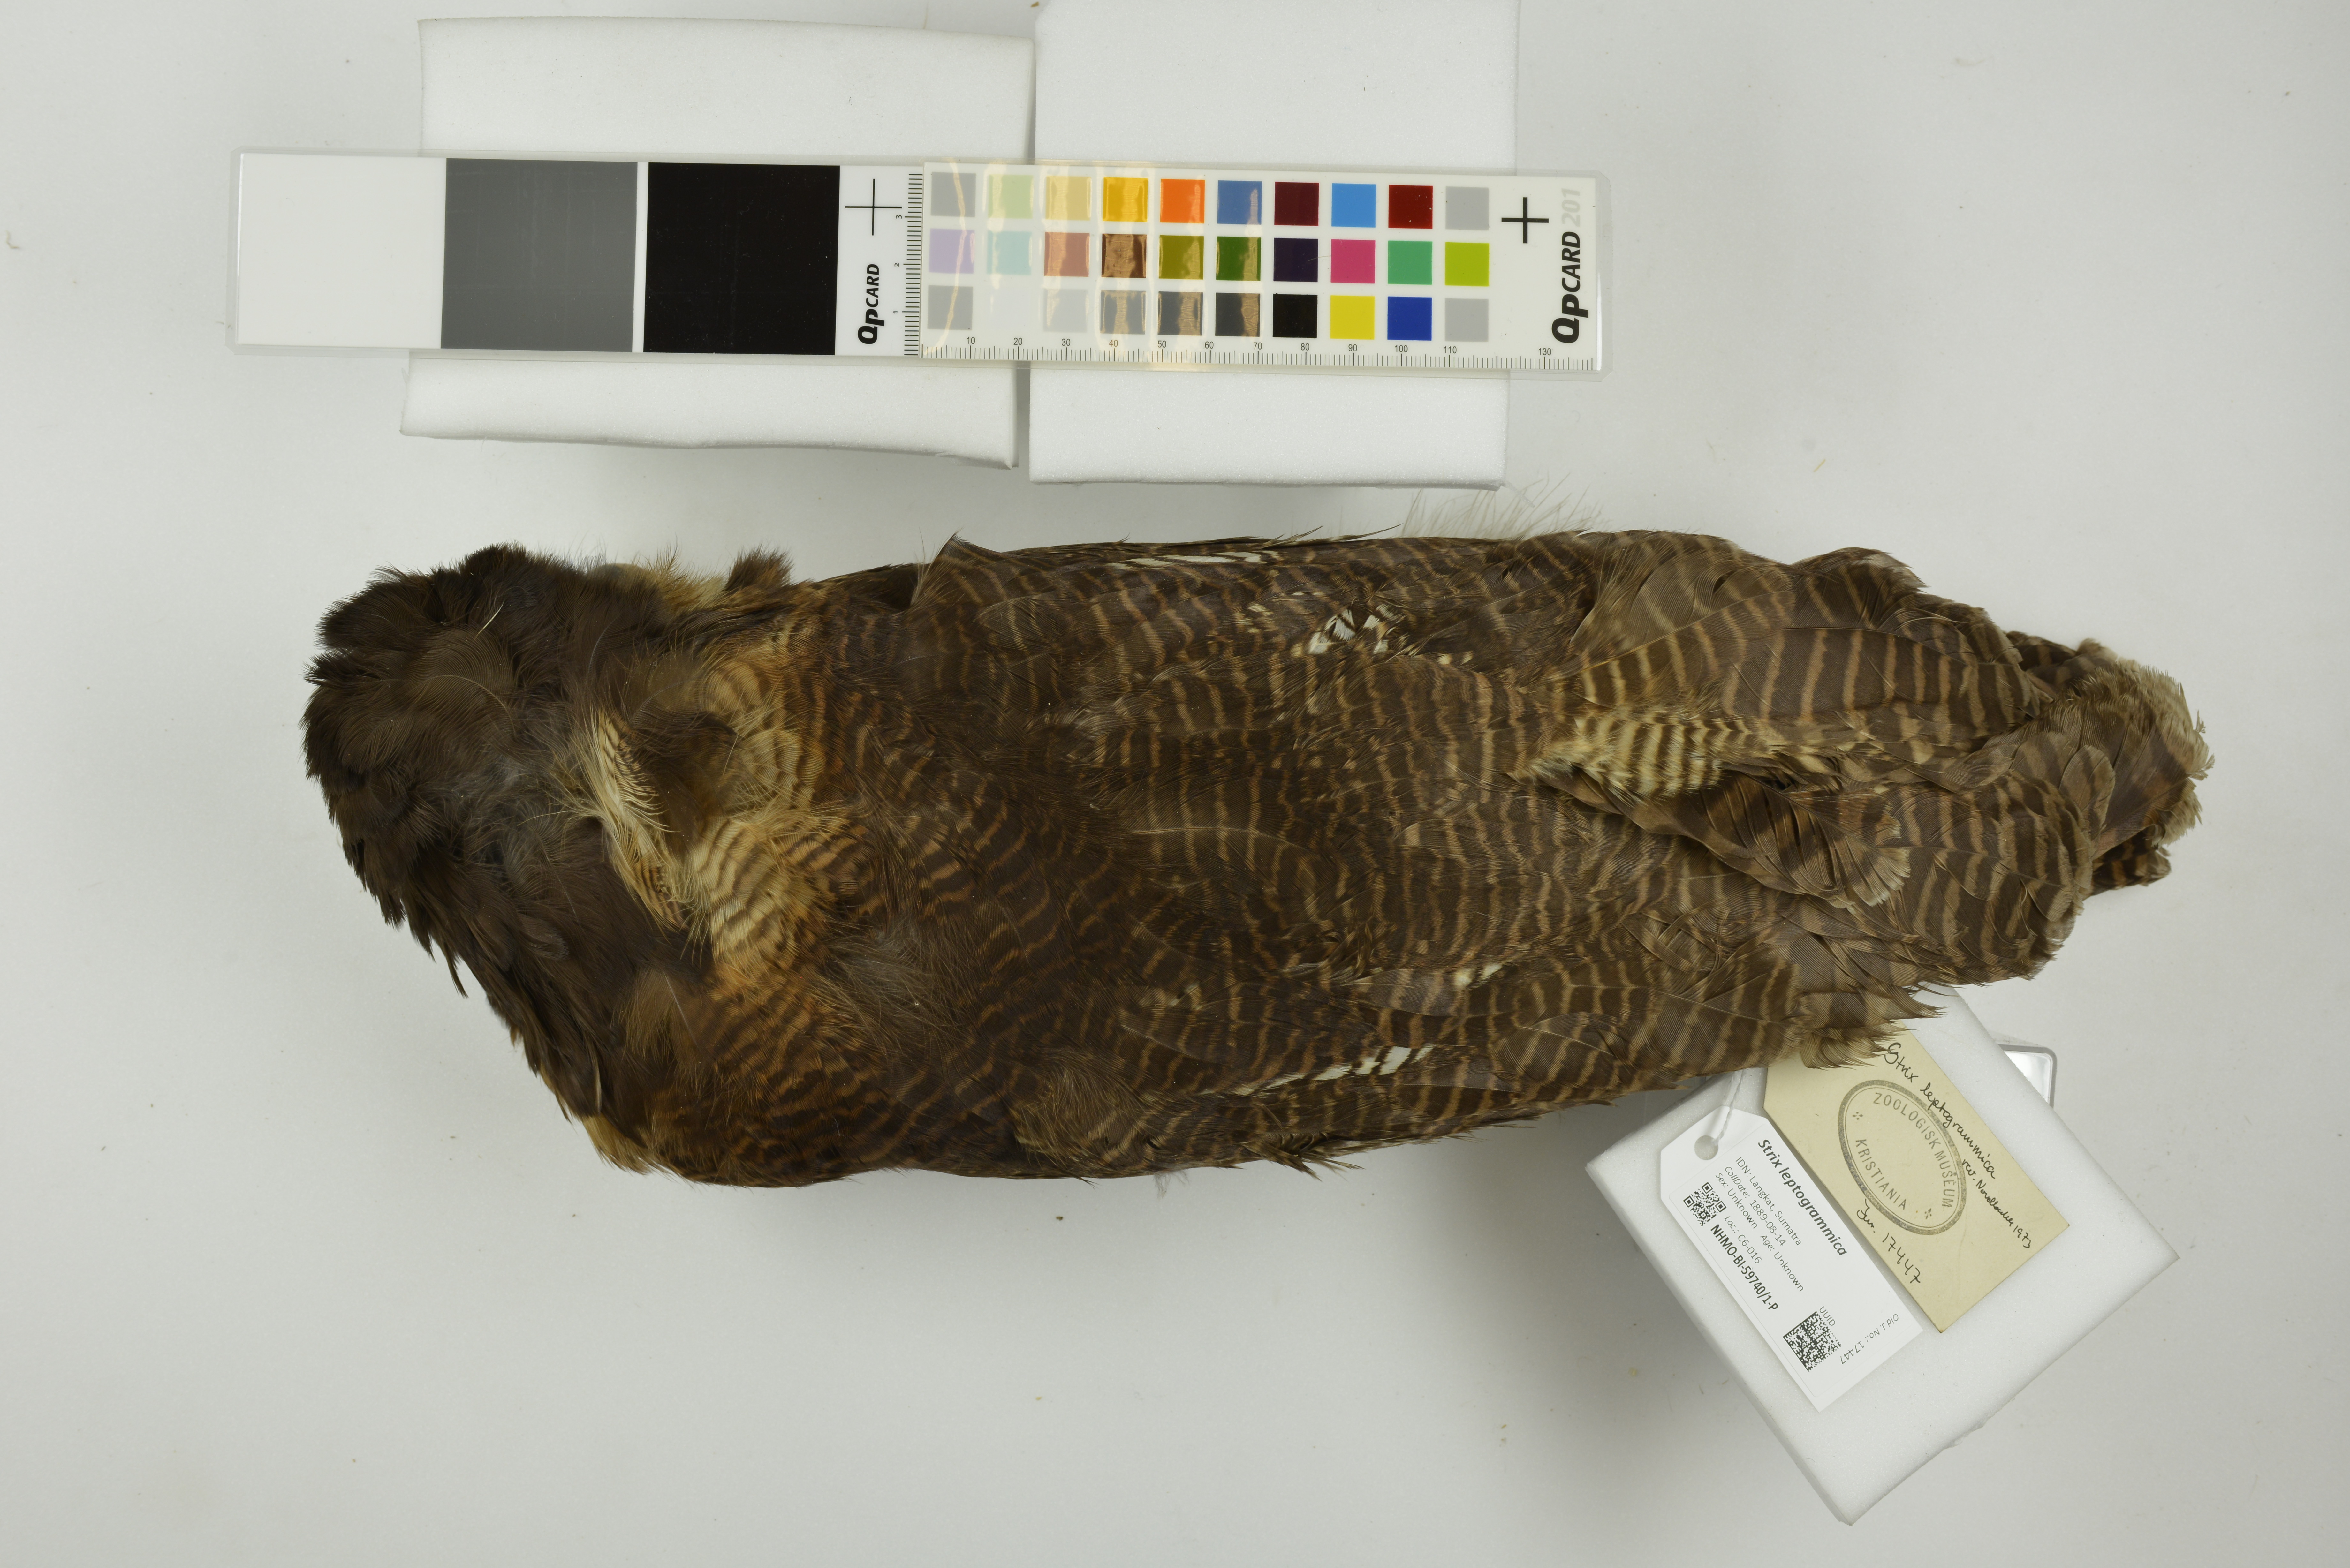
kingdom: Animalia
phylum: Chordata
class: Aves
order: Strigiformes
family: Strigidae
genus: Strix
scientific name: Strix leptogrammica
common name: Brown wood owl
